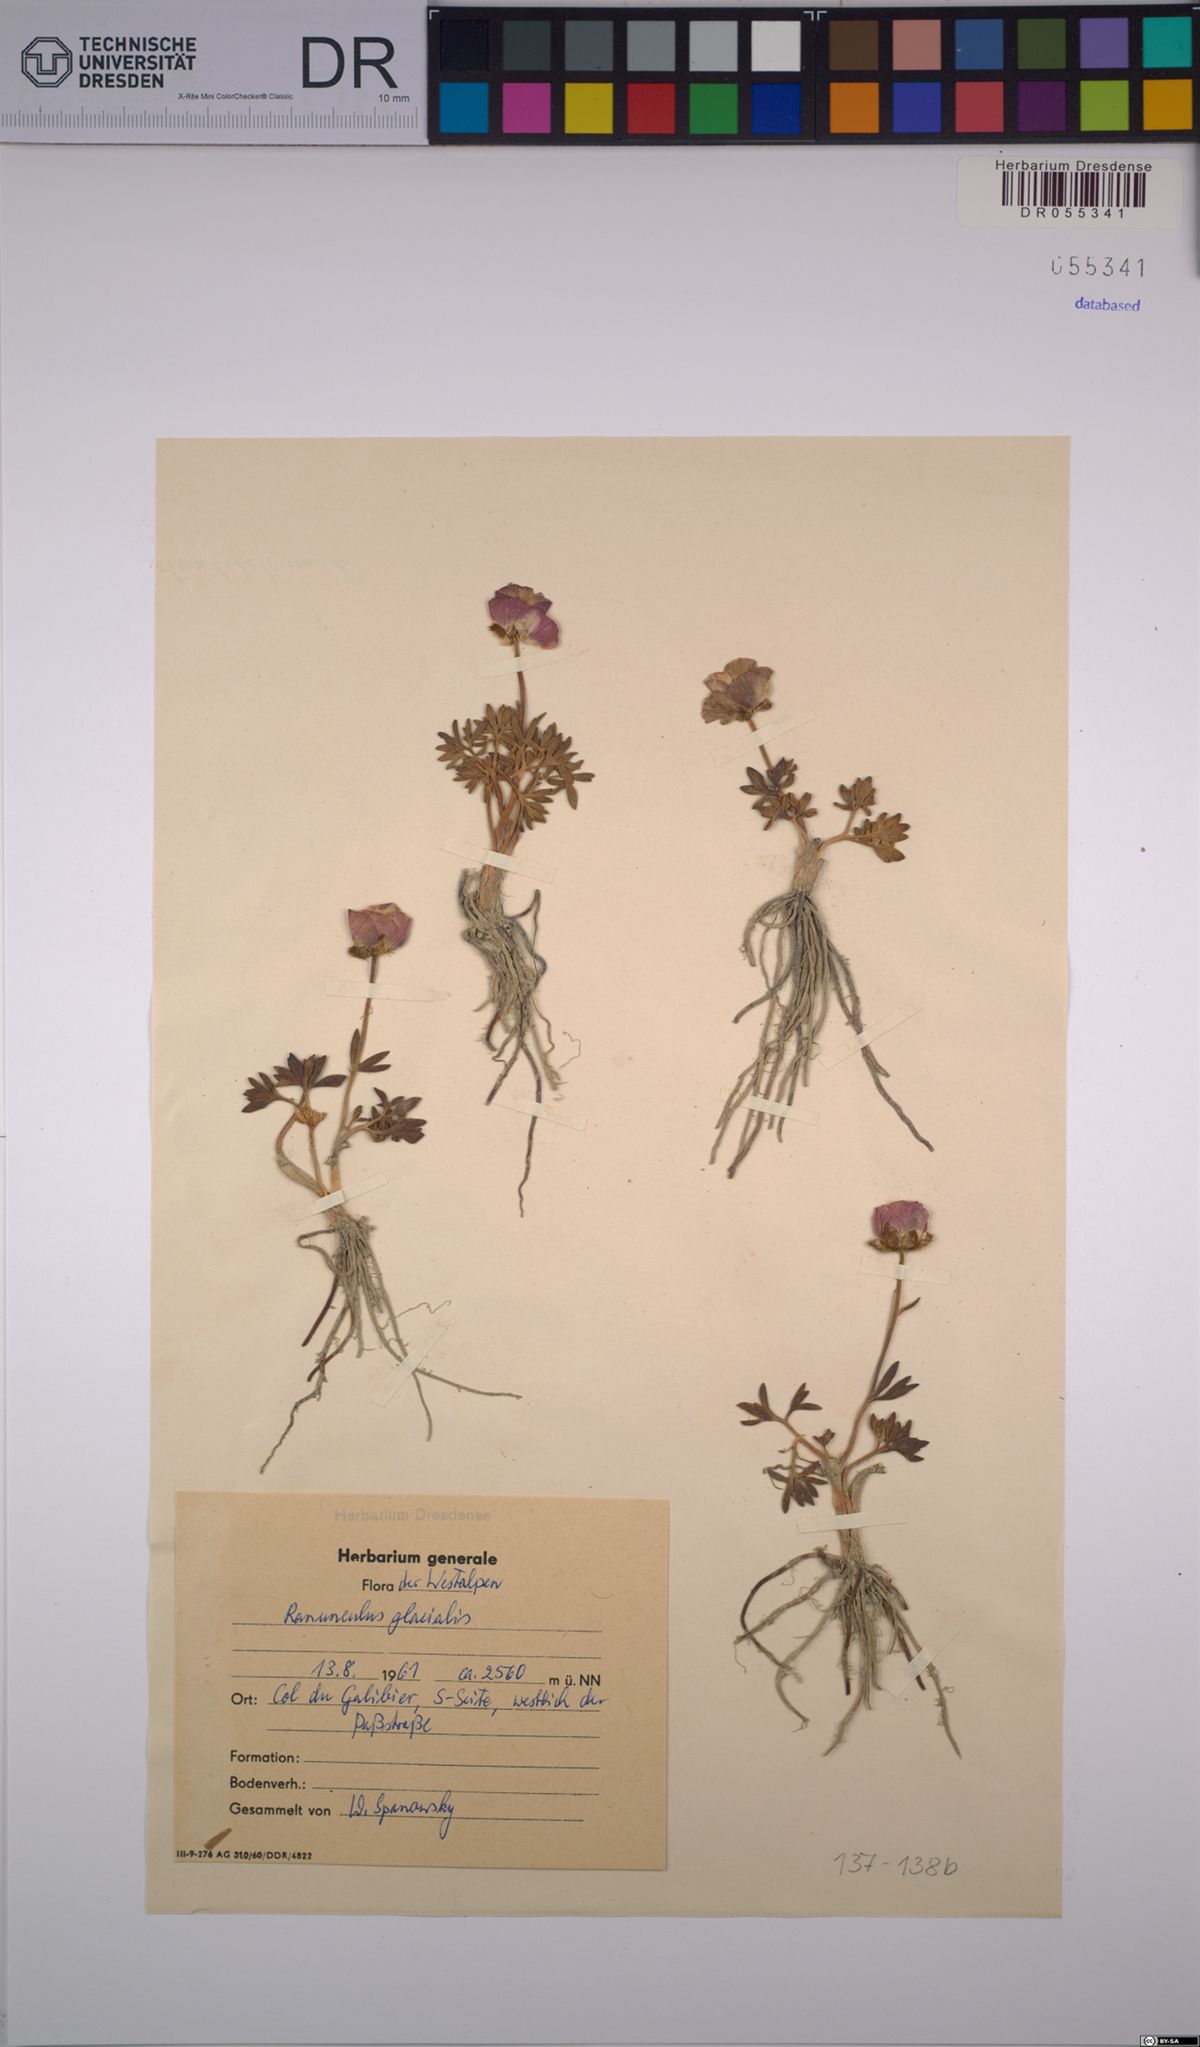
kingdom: Plantae
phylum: Tracheophyta
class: Magnoliopsida
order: Ranunculales
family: Ranunculaceae
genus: Ranunculus
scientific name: Ranunculus glacialis
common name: Glacier buttercup
